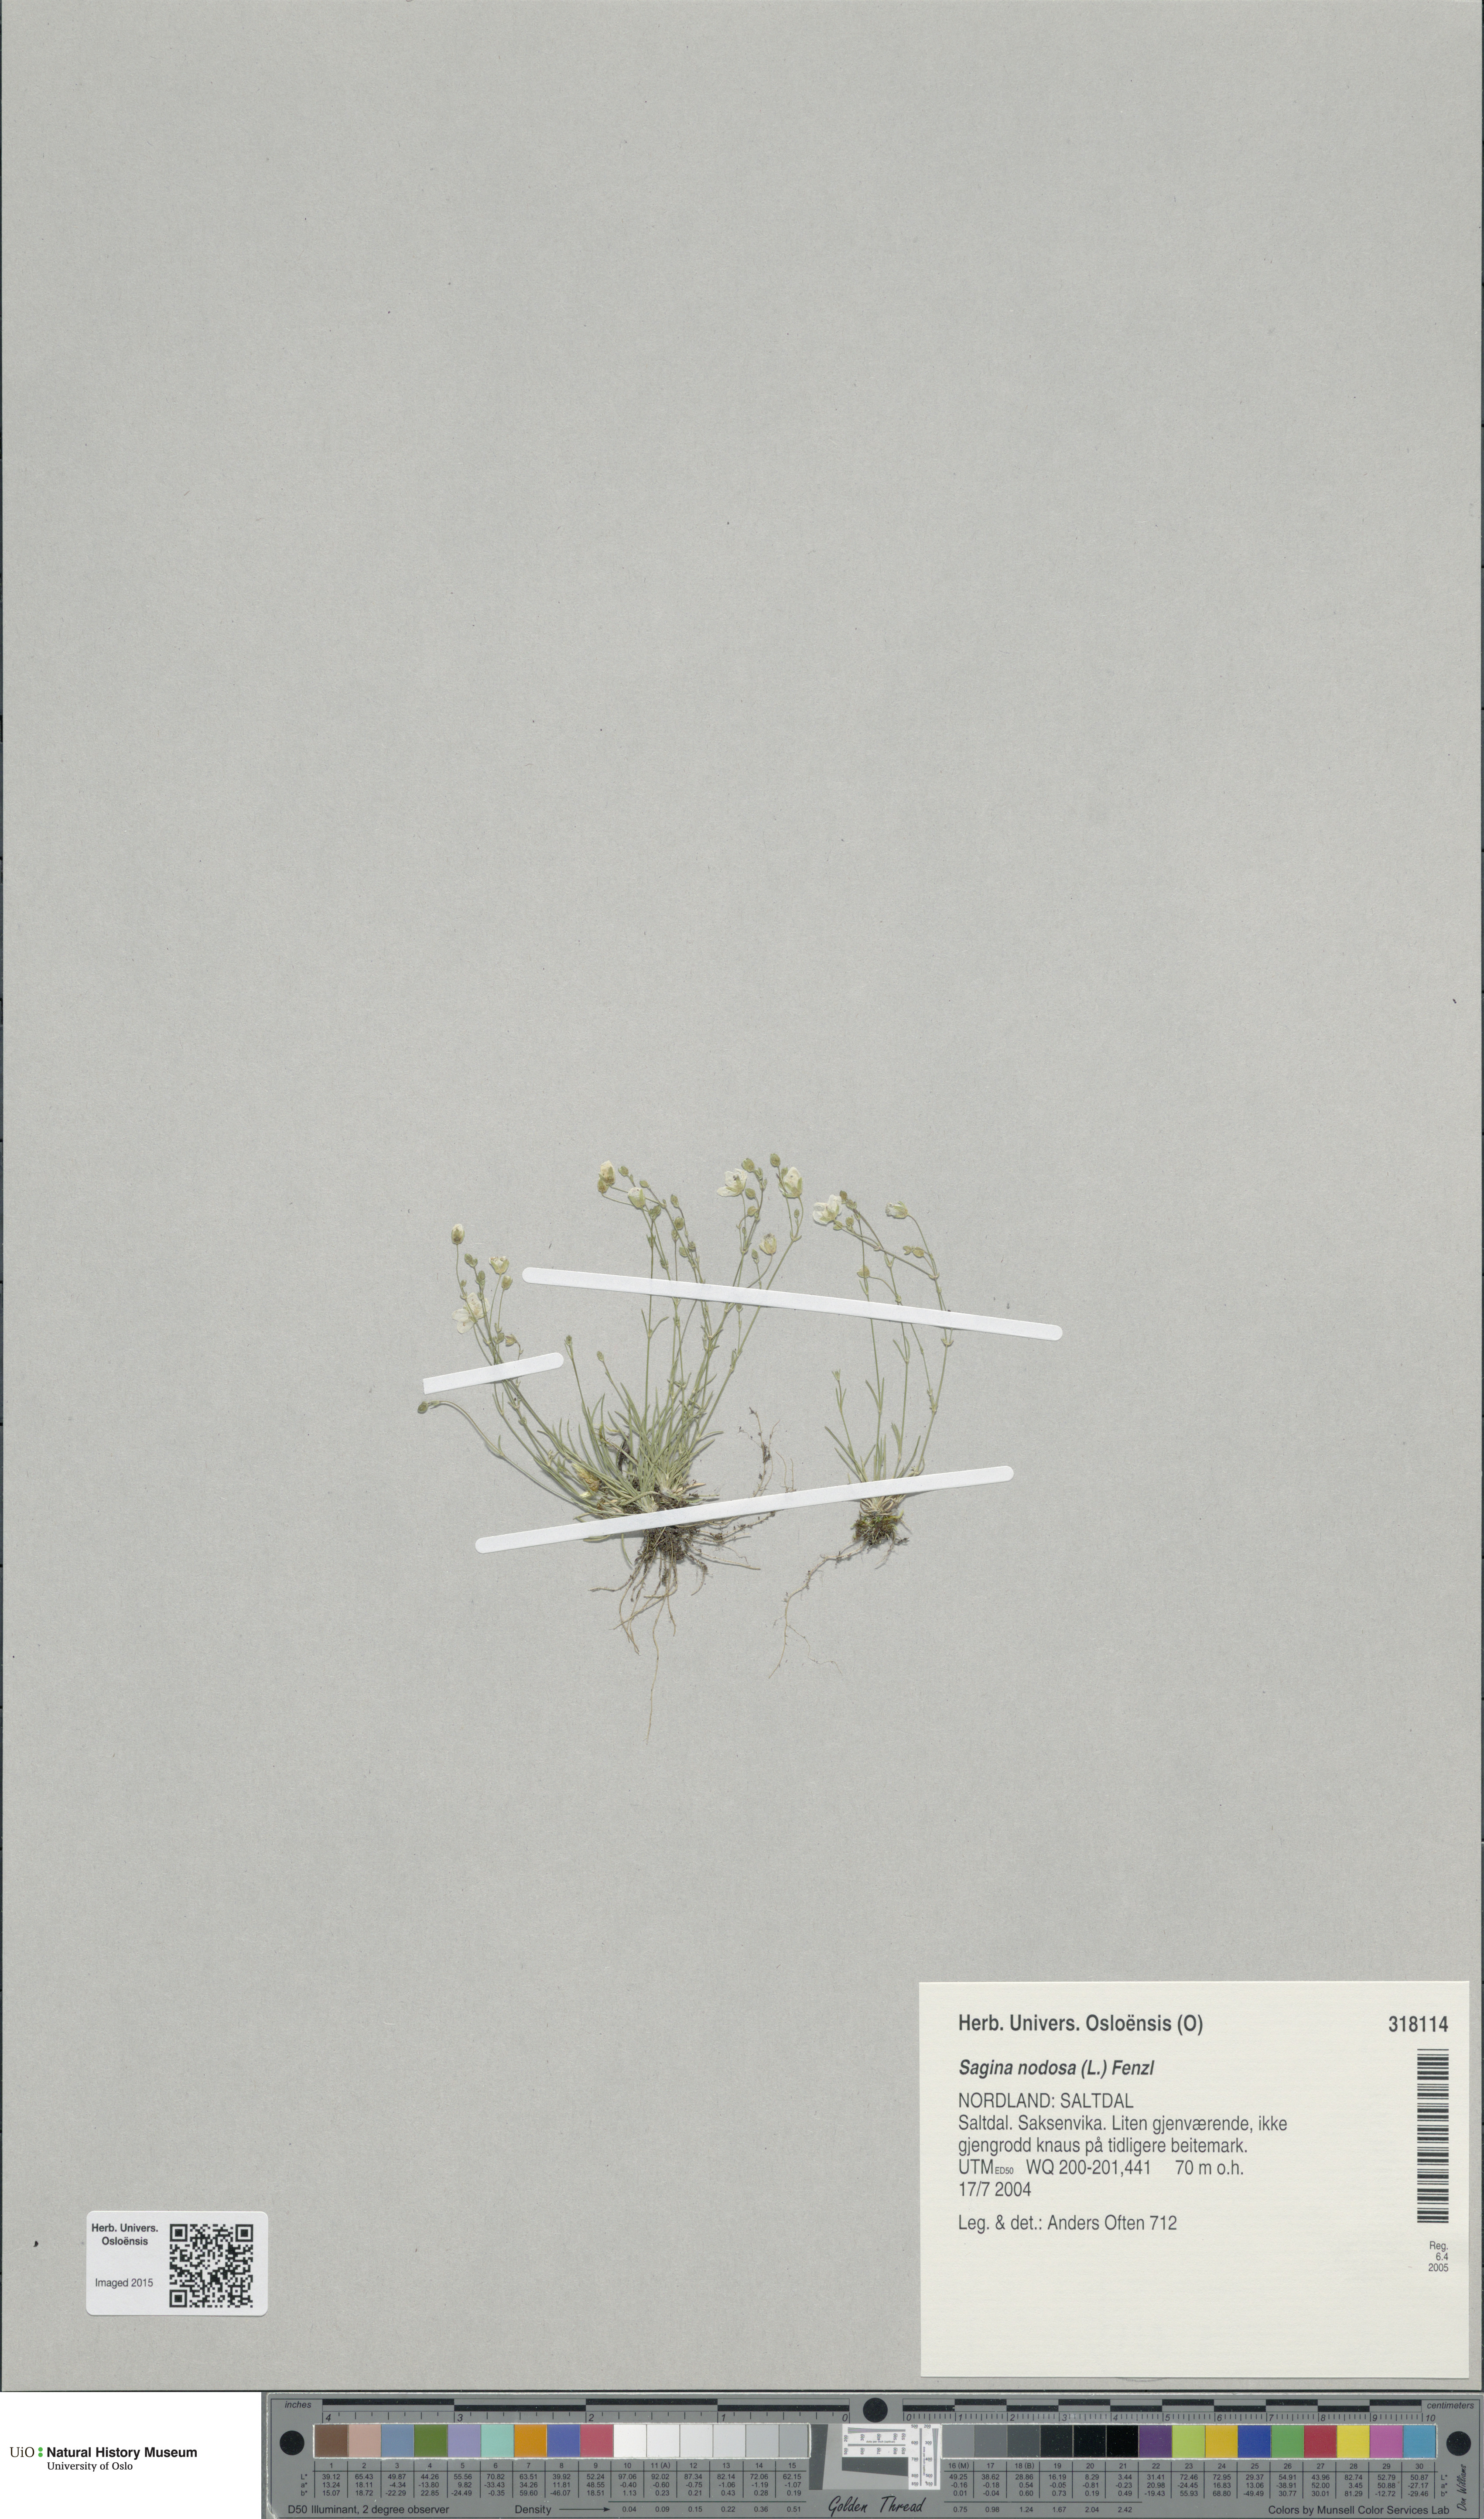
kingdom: Plantae
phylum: Tracheophyta
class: Magnoliopsida
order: Caryophyllales
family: Caryophyllaceae
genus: Sagina
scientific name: Sagina nodosa
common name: Knotted pearlwort
